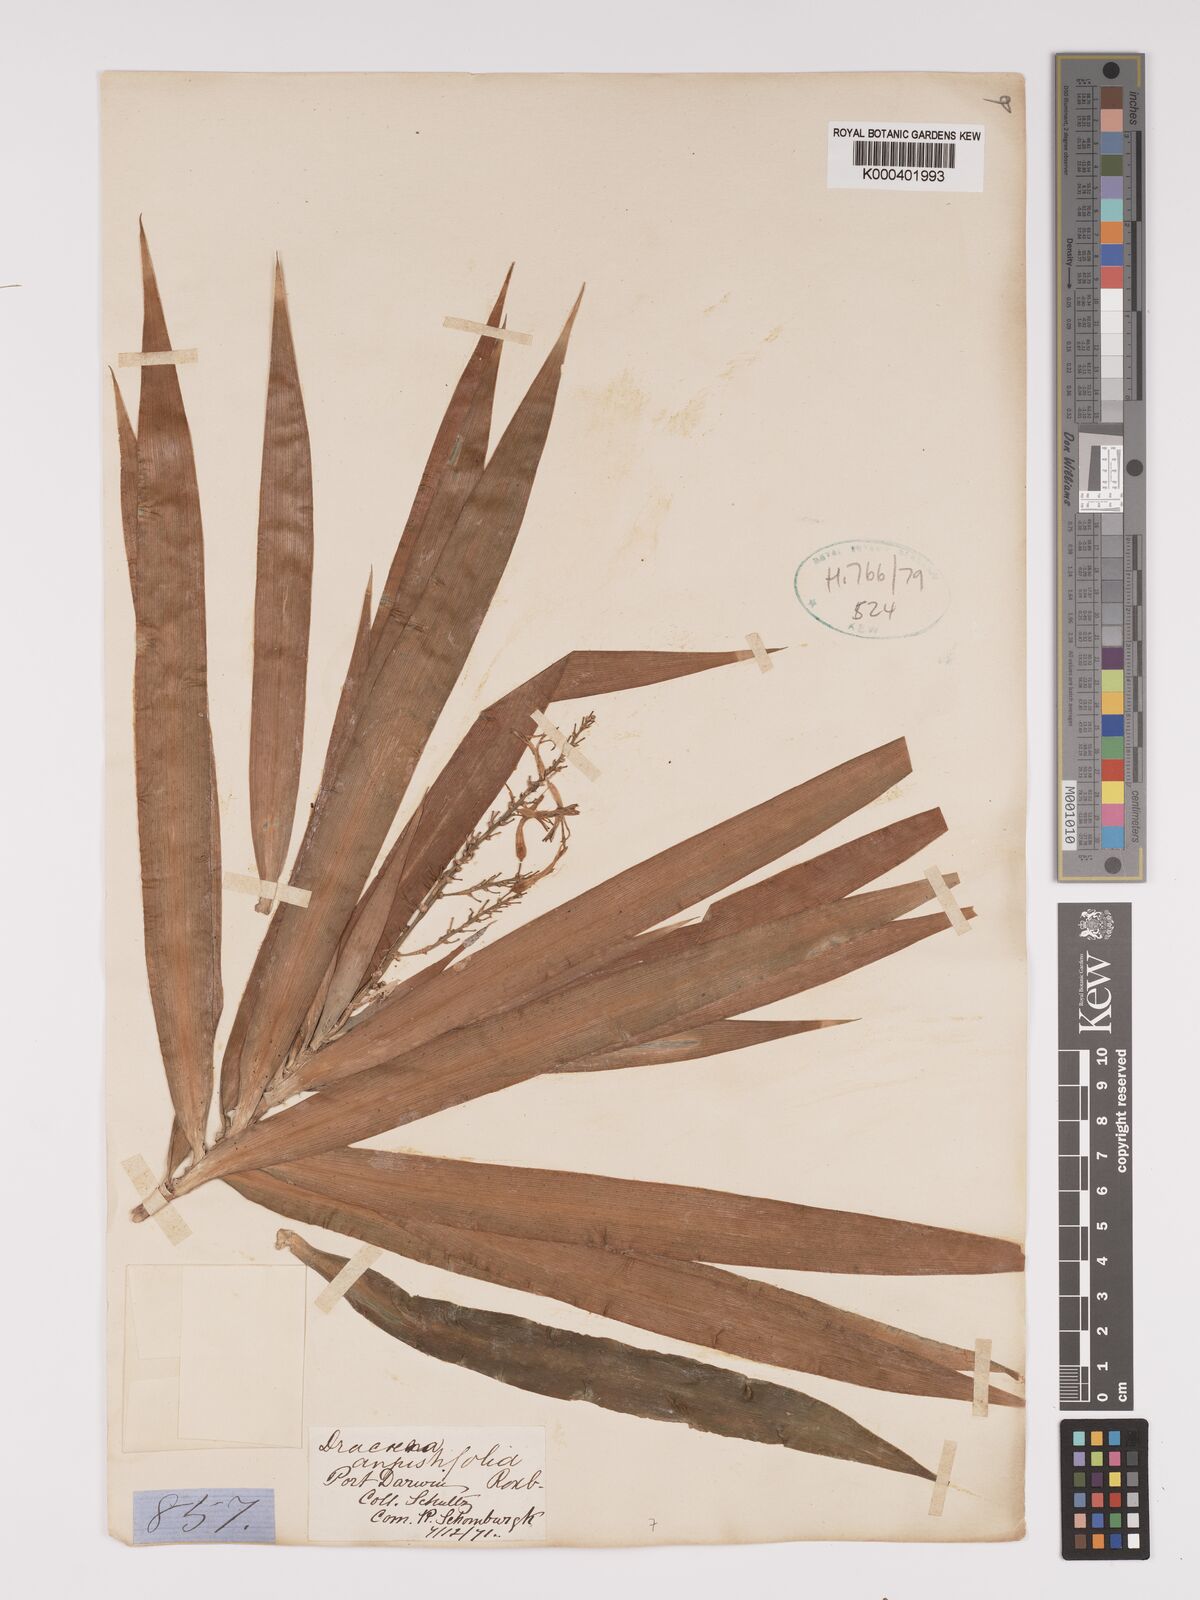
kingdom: Plantae
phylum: Tracheophyta
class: Liliopsida
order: Asparagales
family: Asparagaceae
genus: Dracaena
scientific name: Dracaena angustifolia
